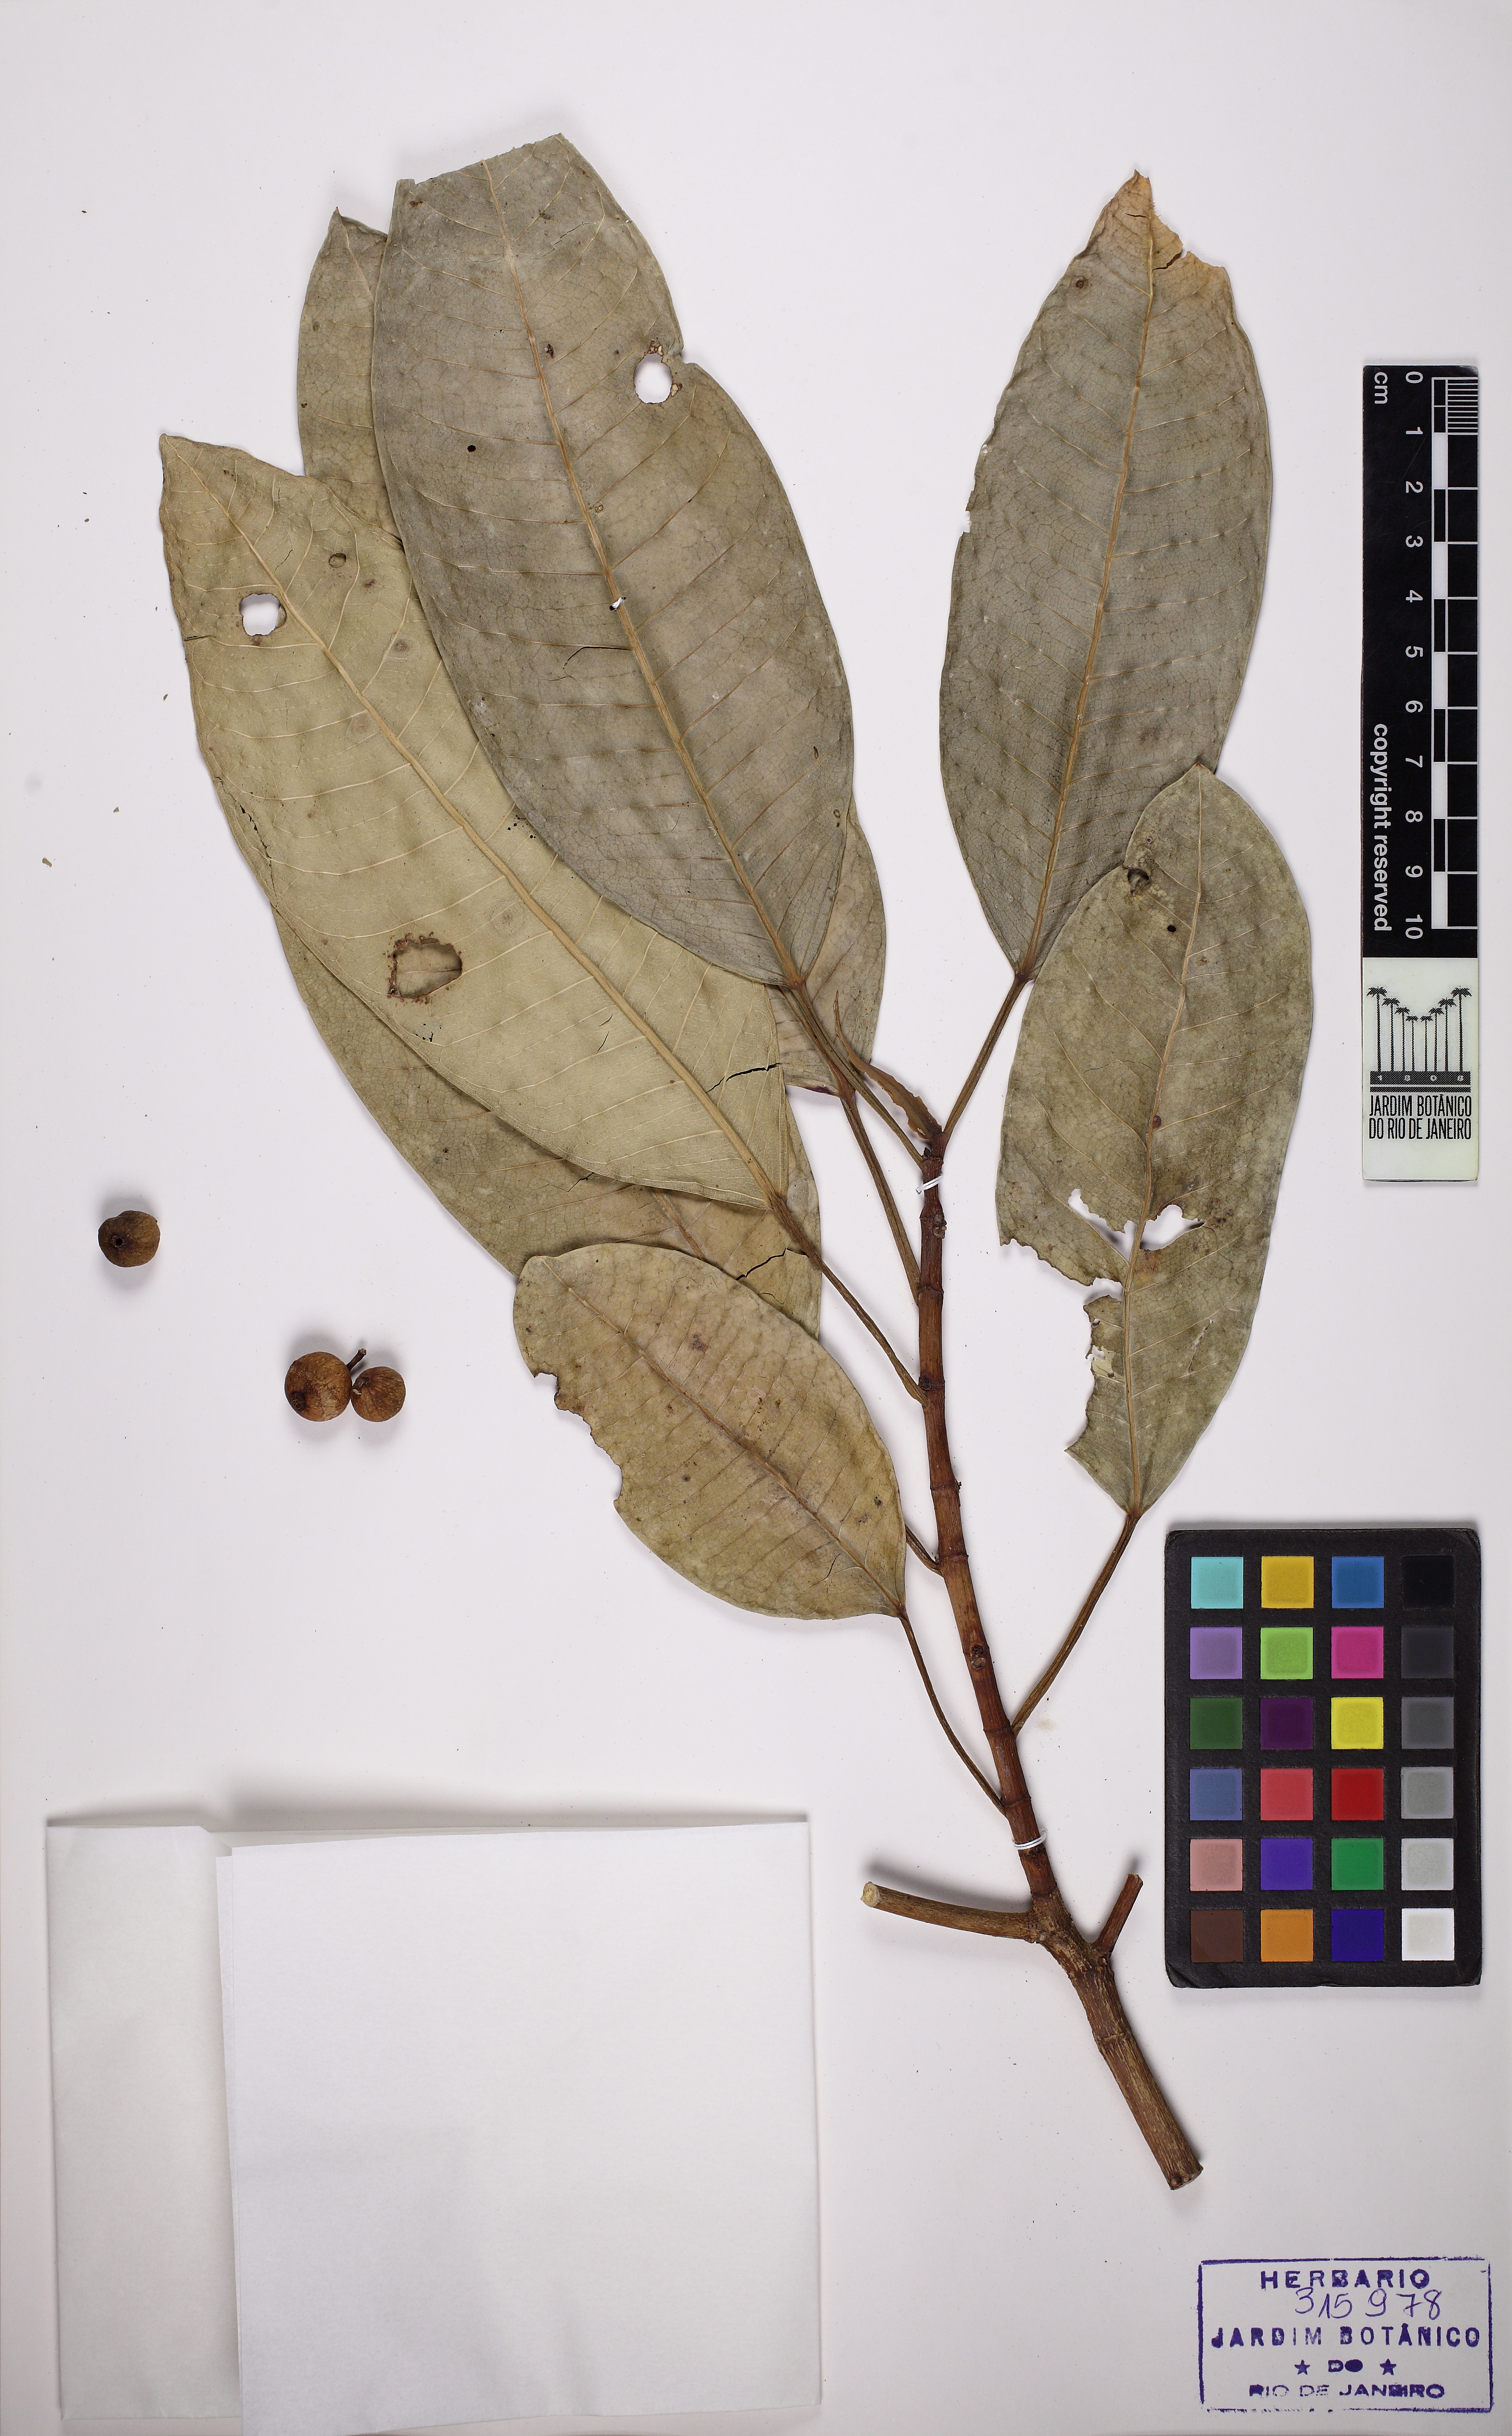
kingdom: Plantae
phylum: Tracheophyta
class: Magnoliopsida
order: Rosales
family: Moraceae
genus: Ficus
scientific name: Ficus obtusiuscula
